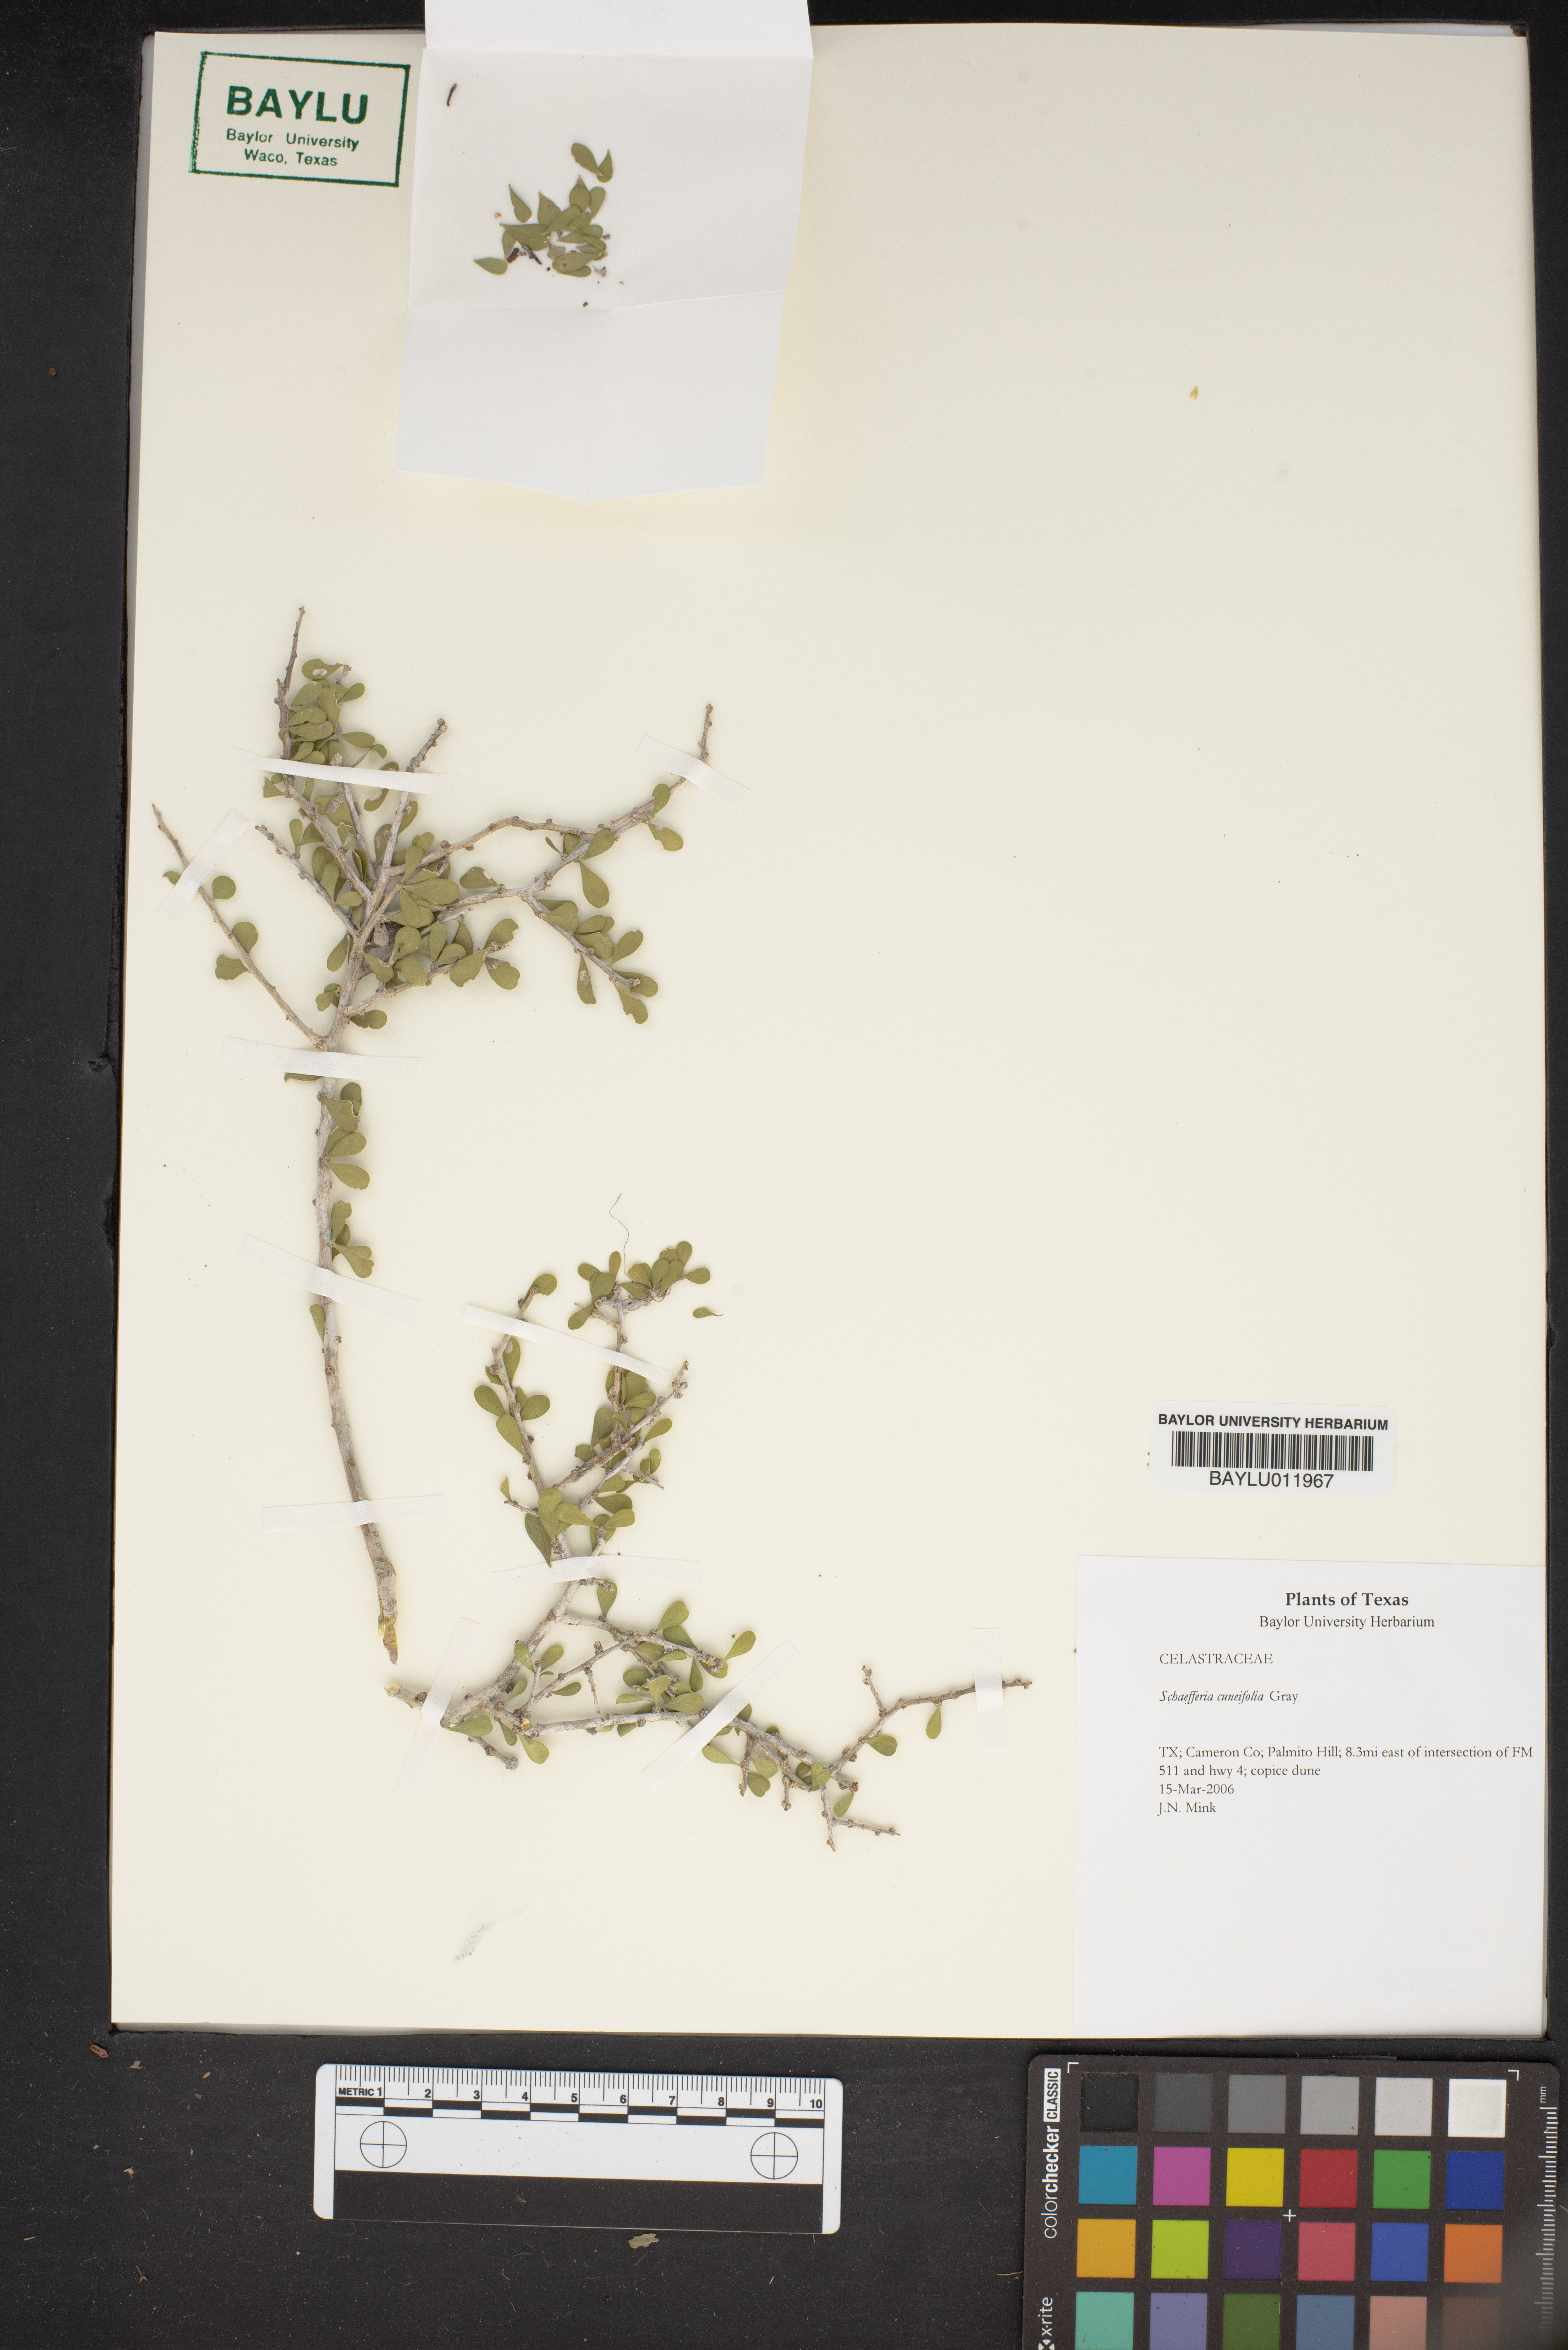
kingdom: Plantae
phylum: Tracheophyta
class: Magnoliopsida
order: Celastrales
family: Celastraceae
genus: Schaefferia
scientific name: Schaefferia cuneifolia
